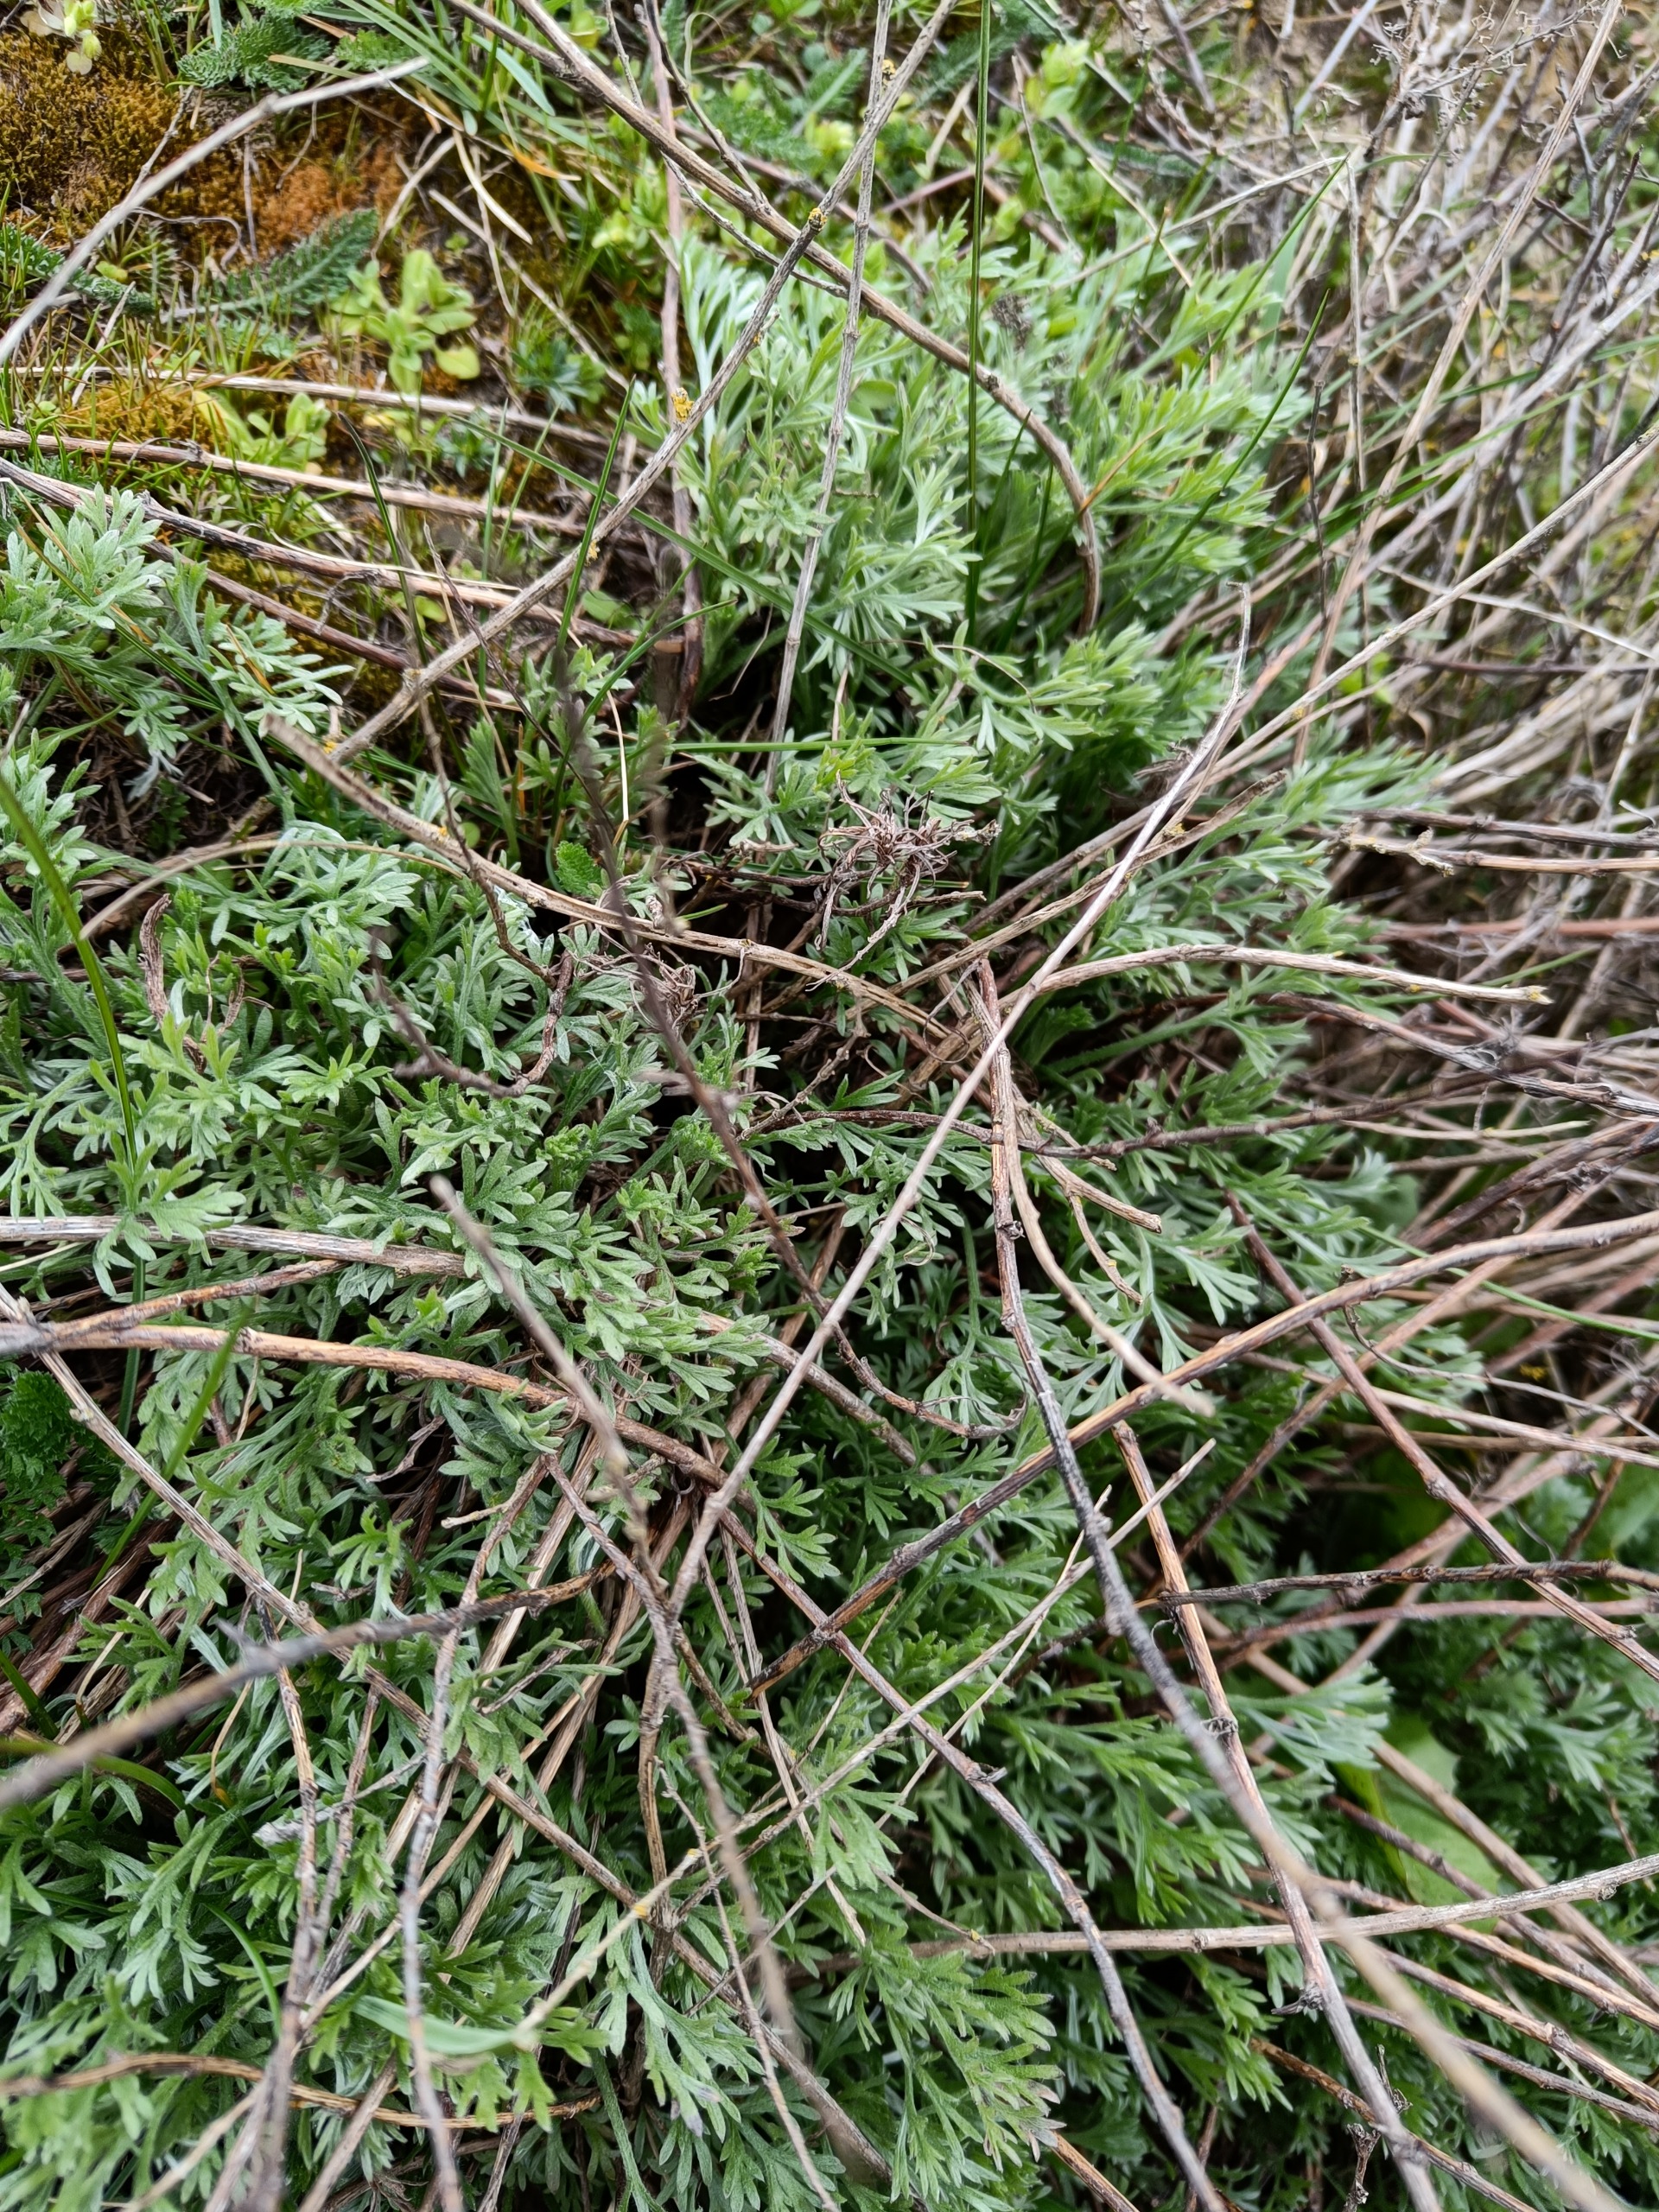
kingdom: Plantae
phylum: Tracheophyta
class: Magnoliopsida
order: Asterales
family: Asteraceae
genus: Artemisia
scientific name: Artemisia campestris
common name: Mark-bynke
